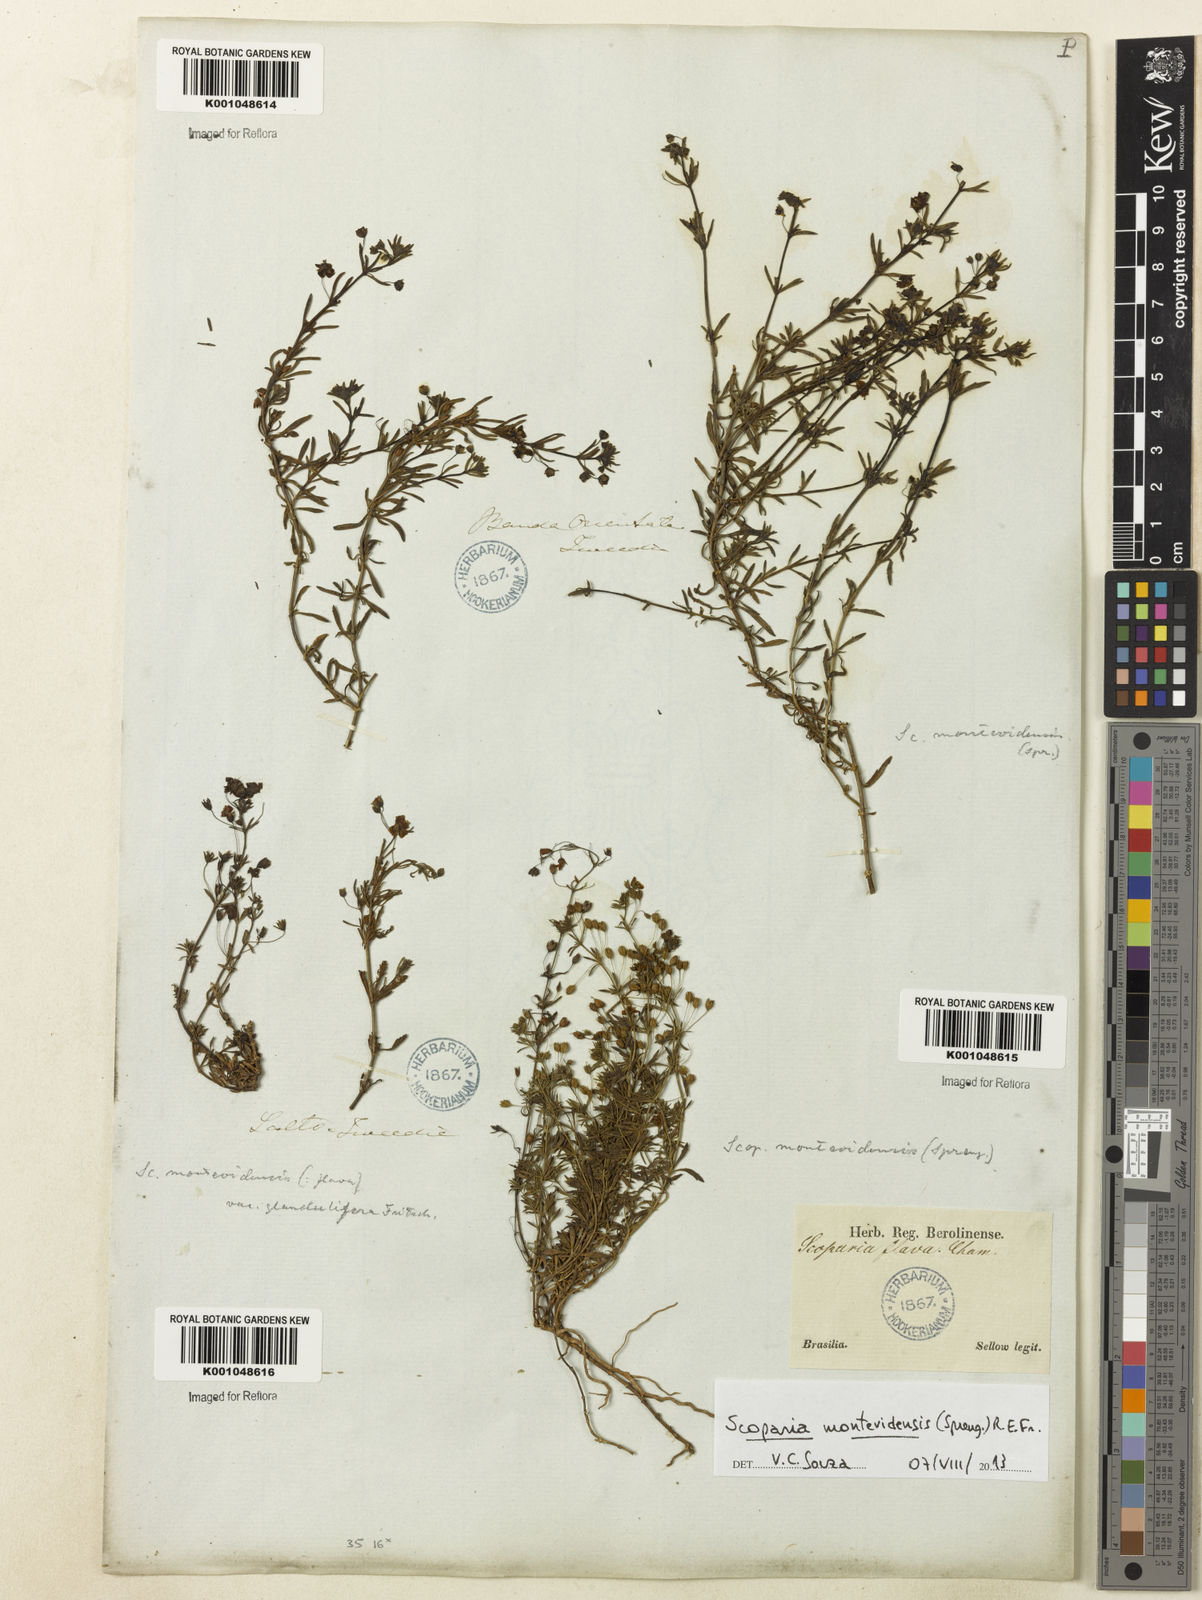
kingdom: Plantae
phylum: Tracheophyta
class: Magnoliopsida
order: Lamiales
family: Plantaginaceae
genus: Scoparia
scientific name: Scoparia montevidensis
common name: Broomwort
